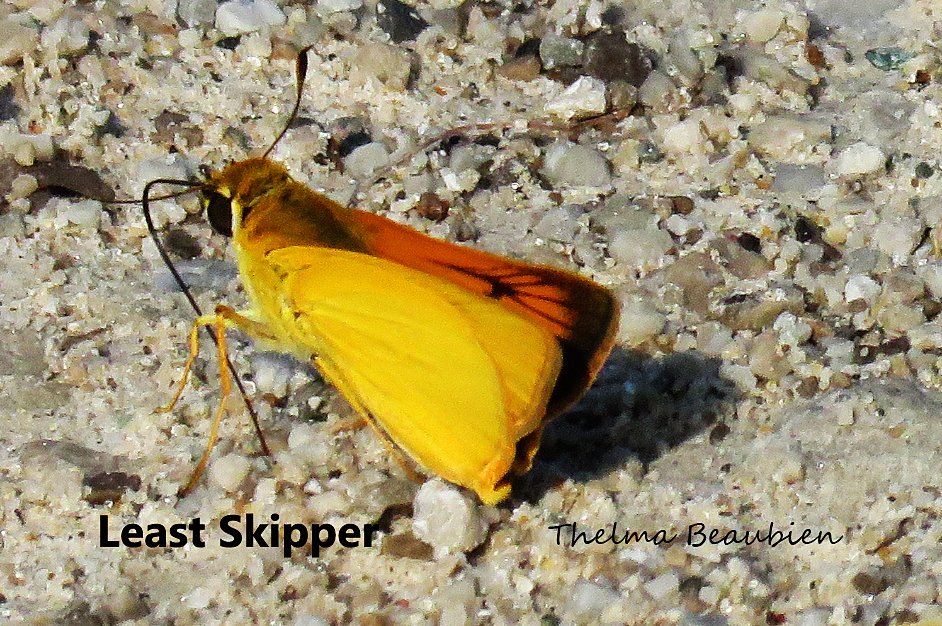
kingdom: Animalia
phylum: Arthropoda
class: Insecta
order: Lepidoptera
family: Hesperiidae
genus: Atrytone
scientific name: Atrytone delaware
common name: Delaware Skipper
